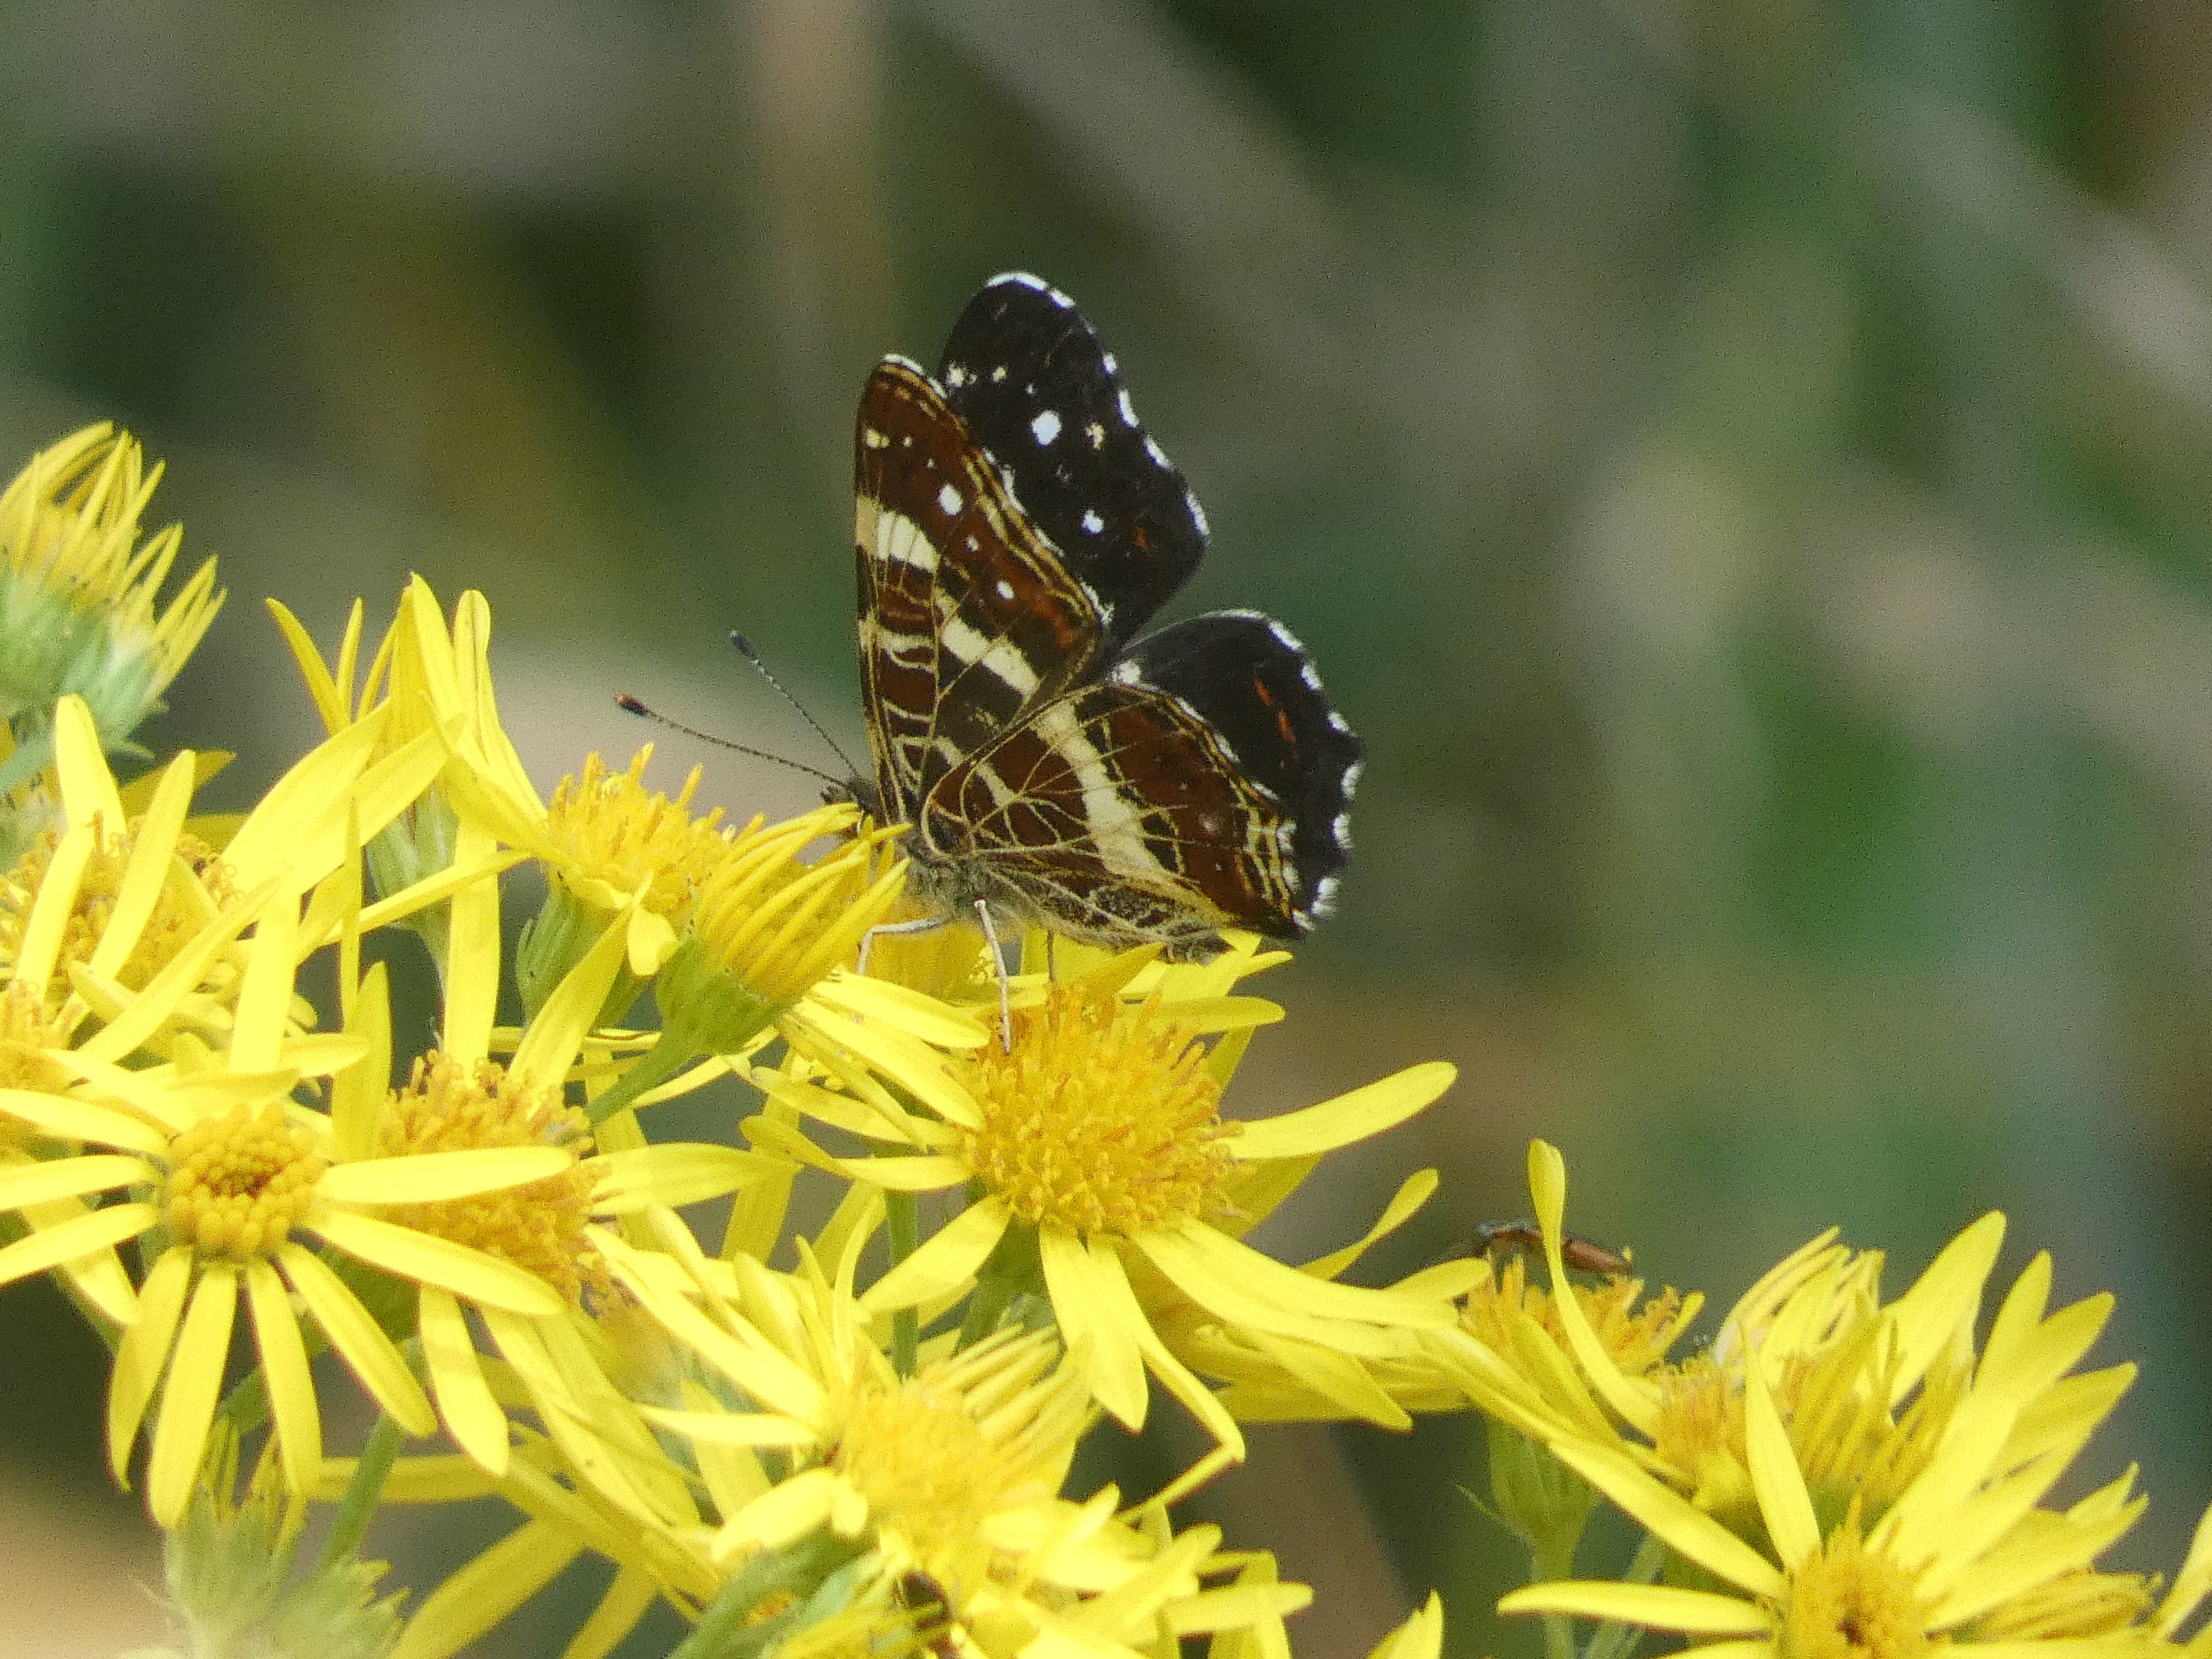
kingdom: Animalia
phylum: Arthropoda
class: Insecta
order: Lepidoptera
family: Nymphalidae
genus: Araschnia
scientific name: Araschnia levana
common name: Nældesommerfugl
